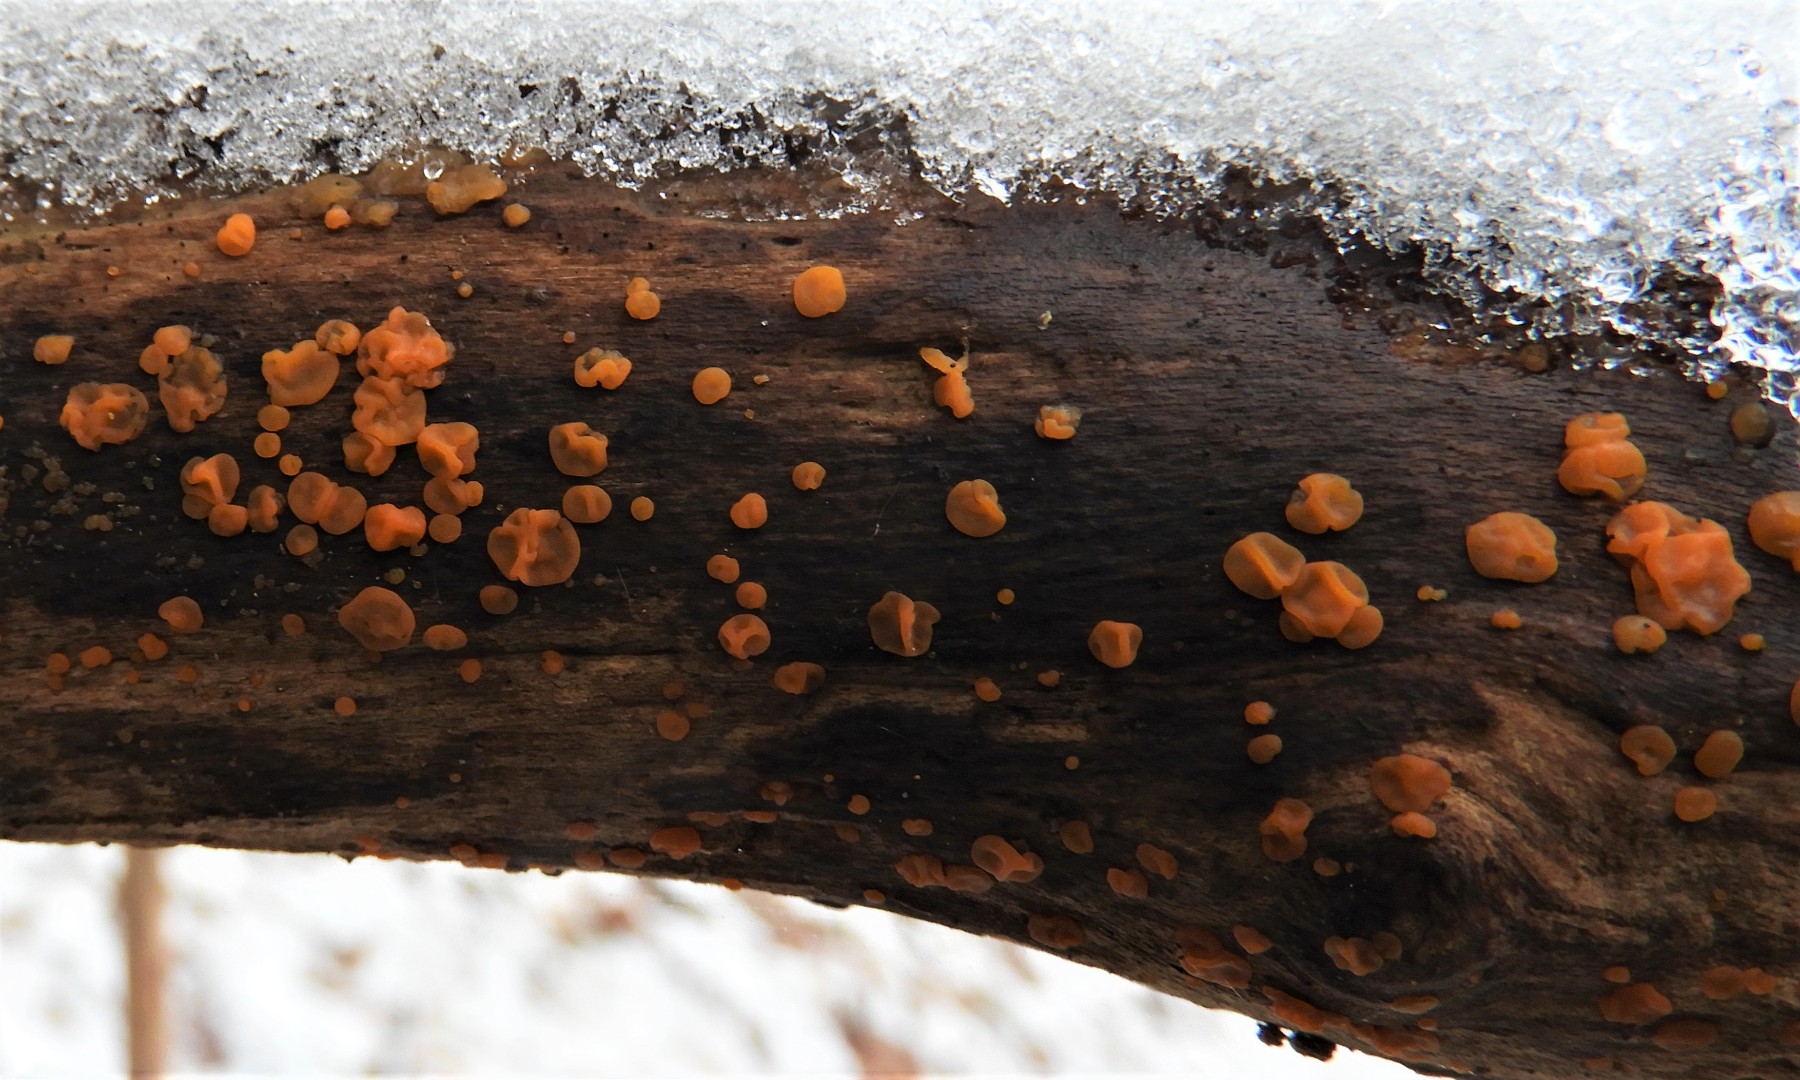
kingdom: Fungi
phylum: Basidiomycota
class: Dacrymycetes
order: Dacrymycetales
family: Dacrymycetaceae
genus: Dacrymyces
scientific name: Dacrymyces stillatus
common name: almindelig tåresvamp
